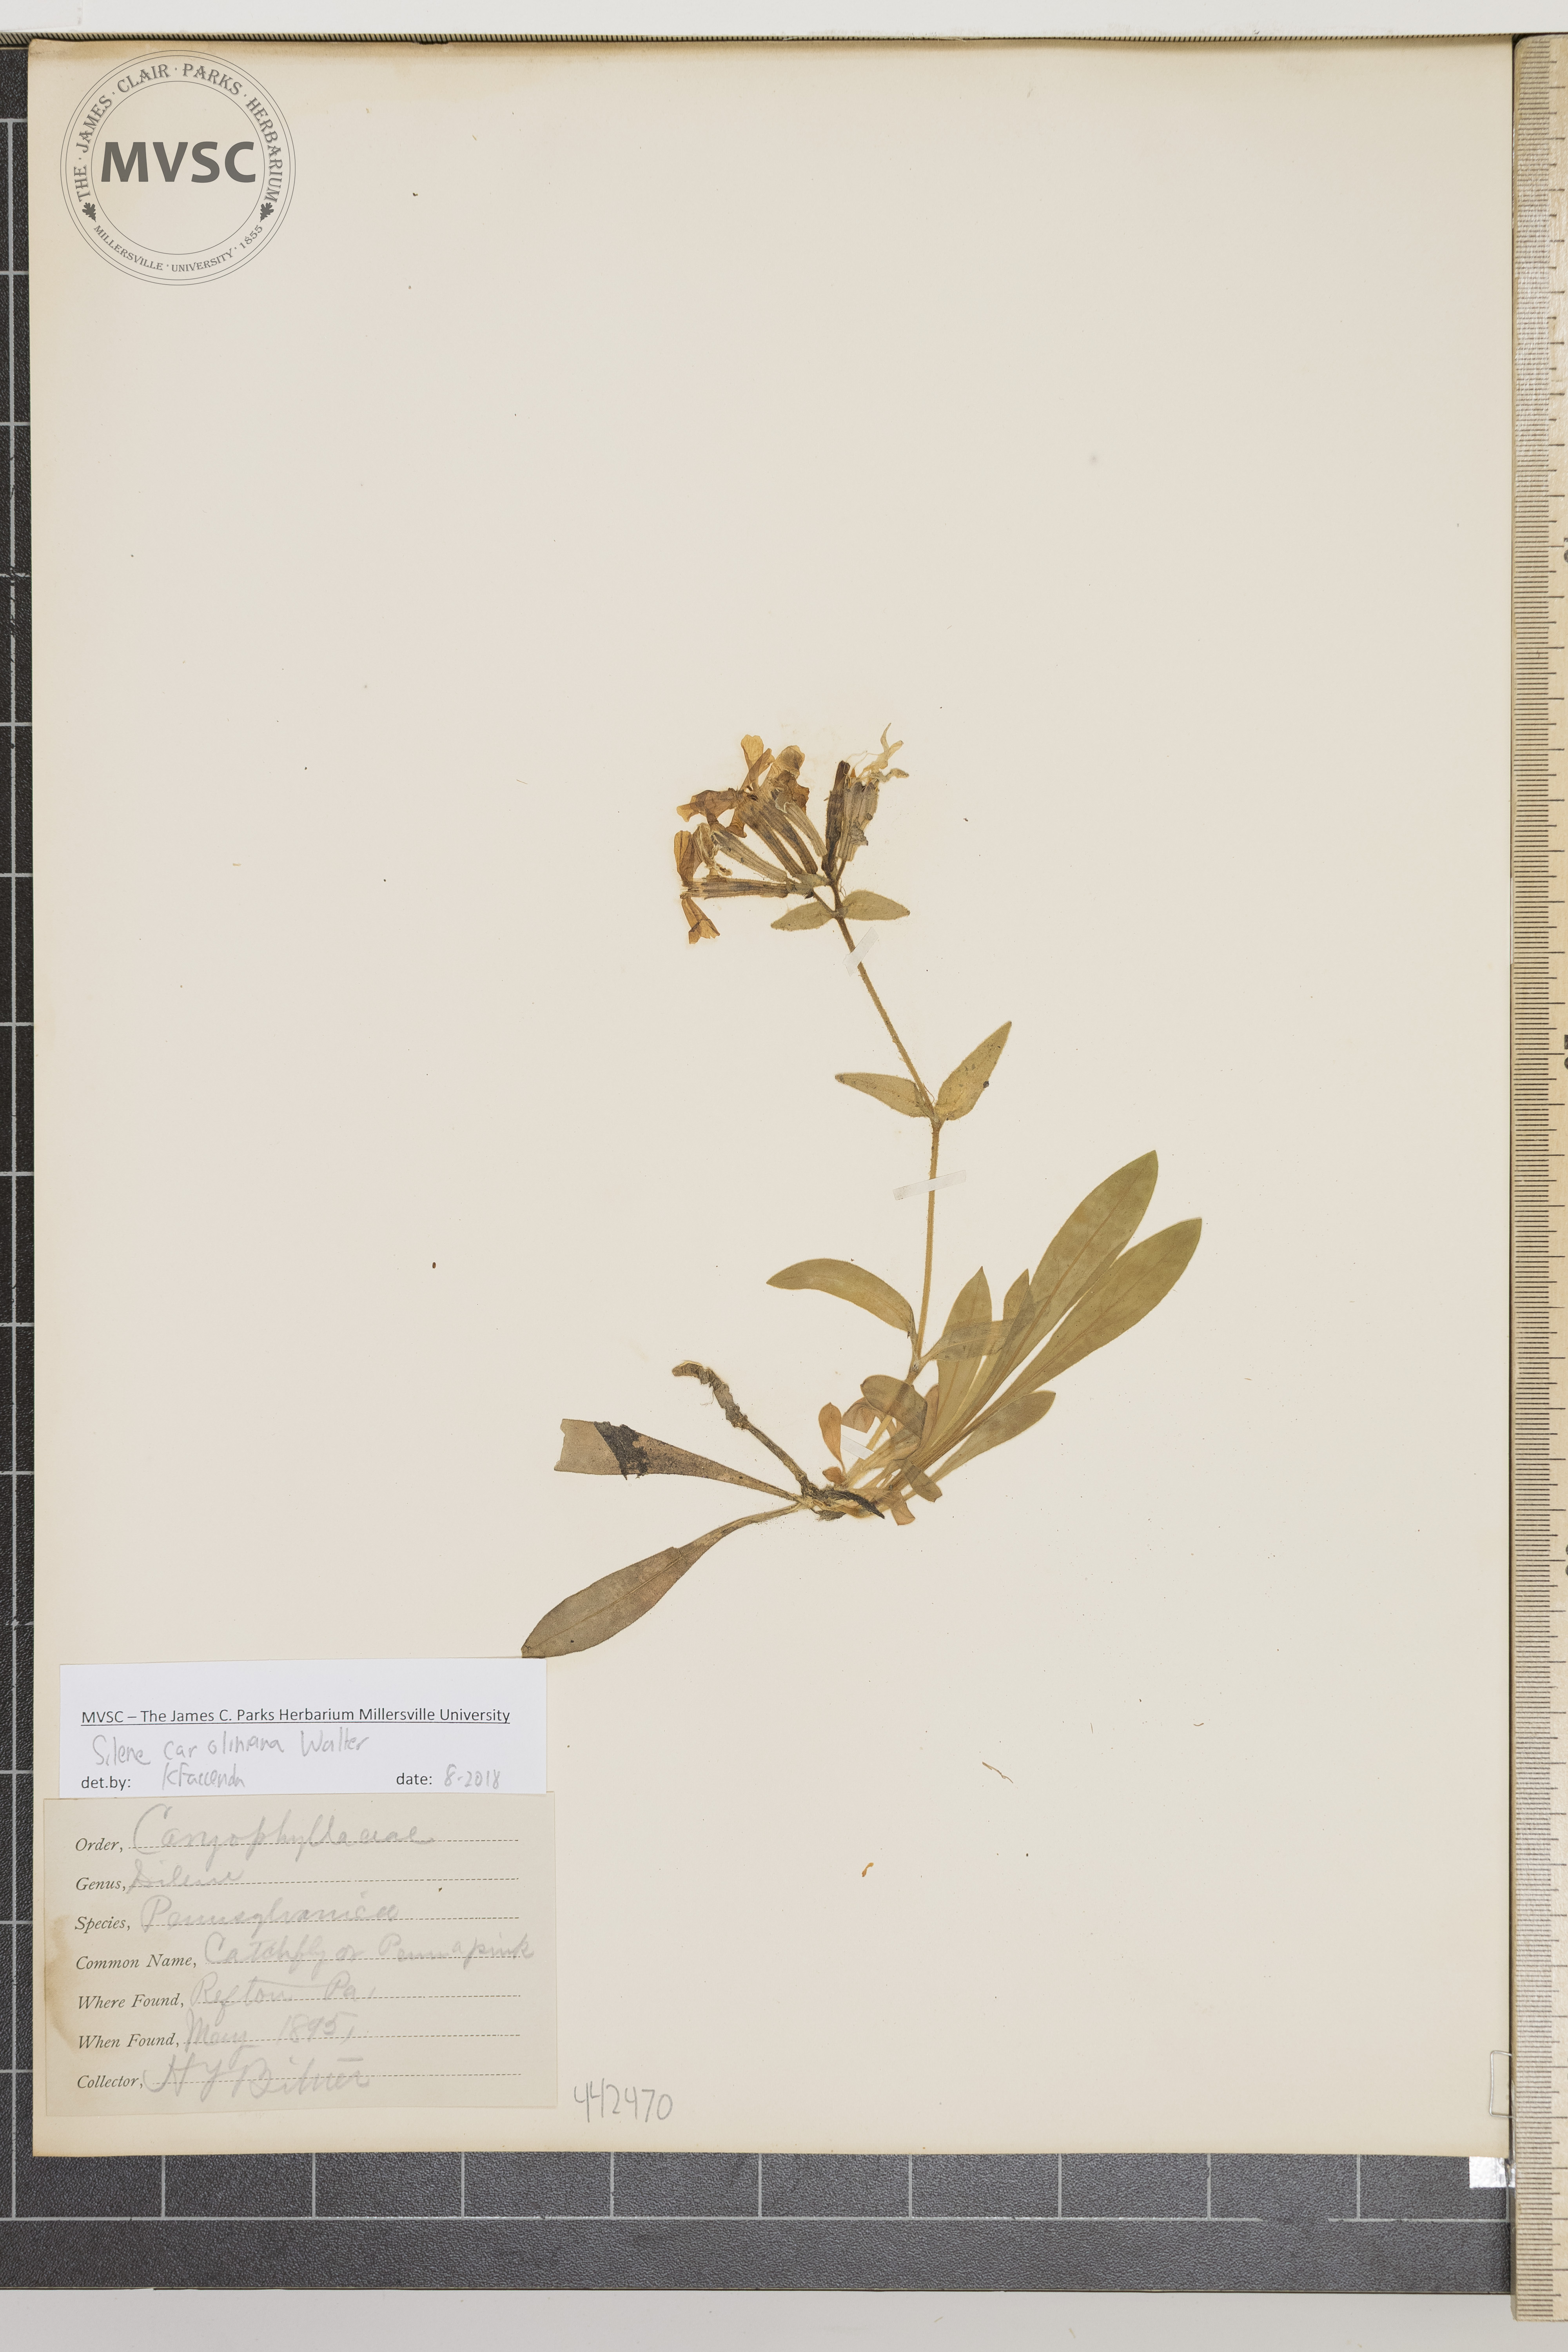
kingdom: Plantae
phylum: Tracheophyta
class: Magnoliopsida
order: Caryophyllales
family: Caryophyllaceae
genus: Silene
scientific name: Silene caroliniana
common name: Catchfly
